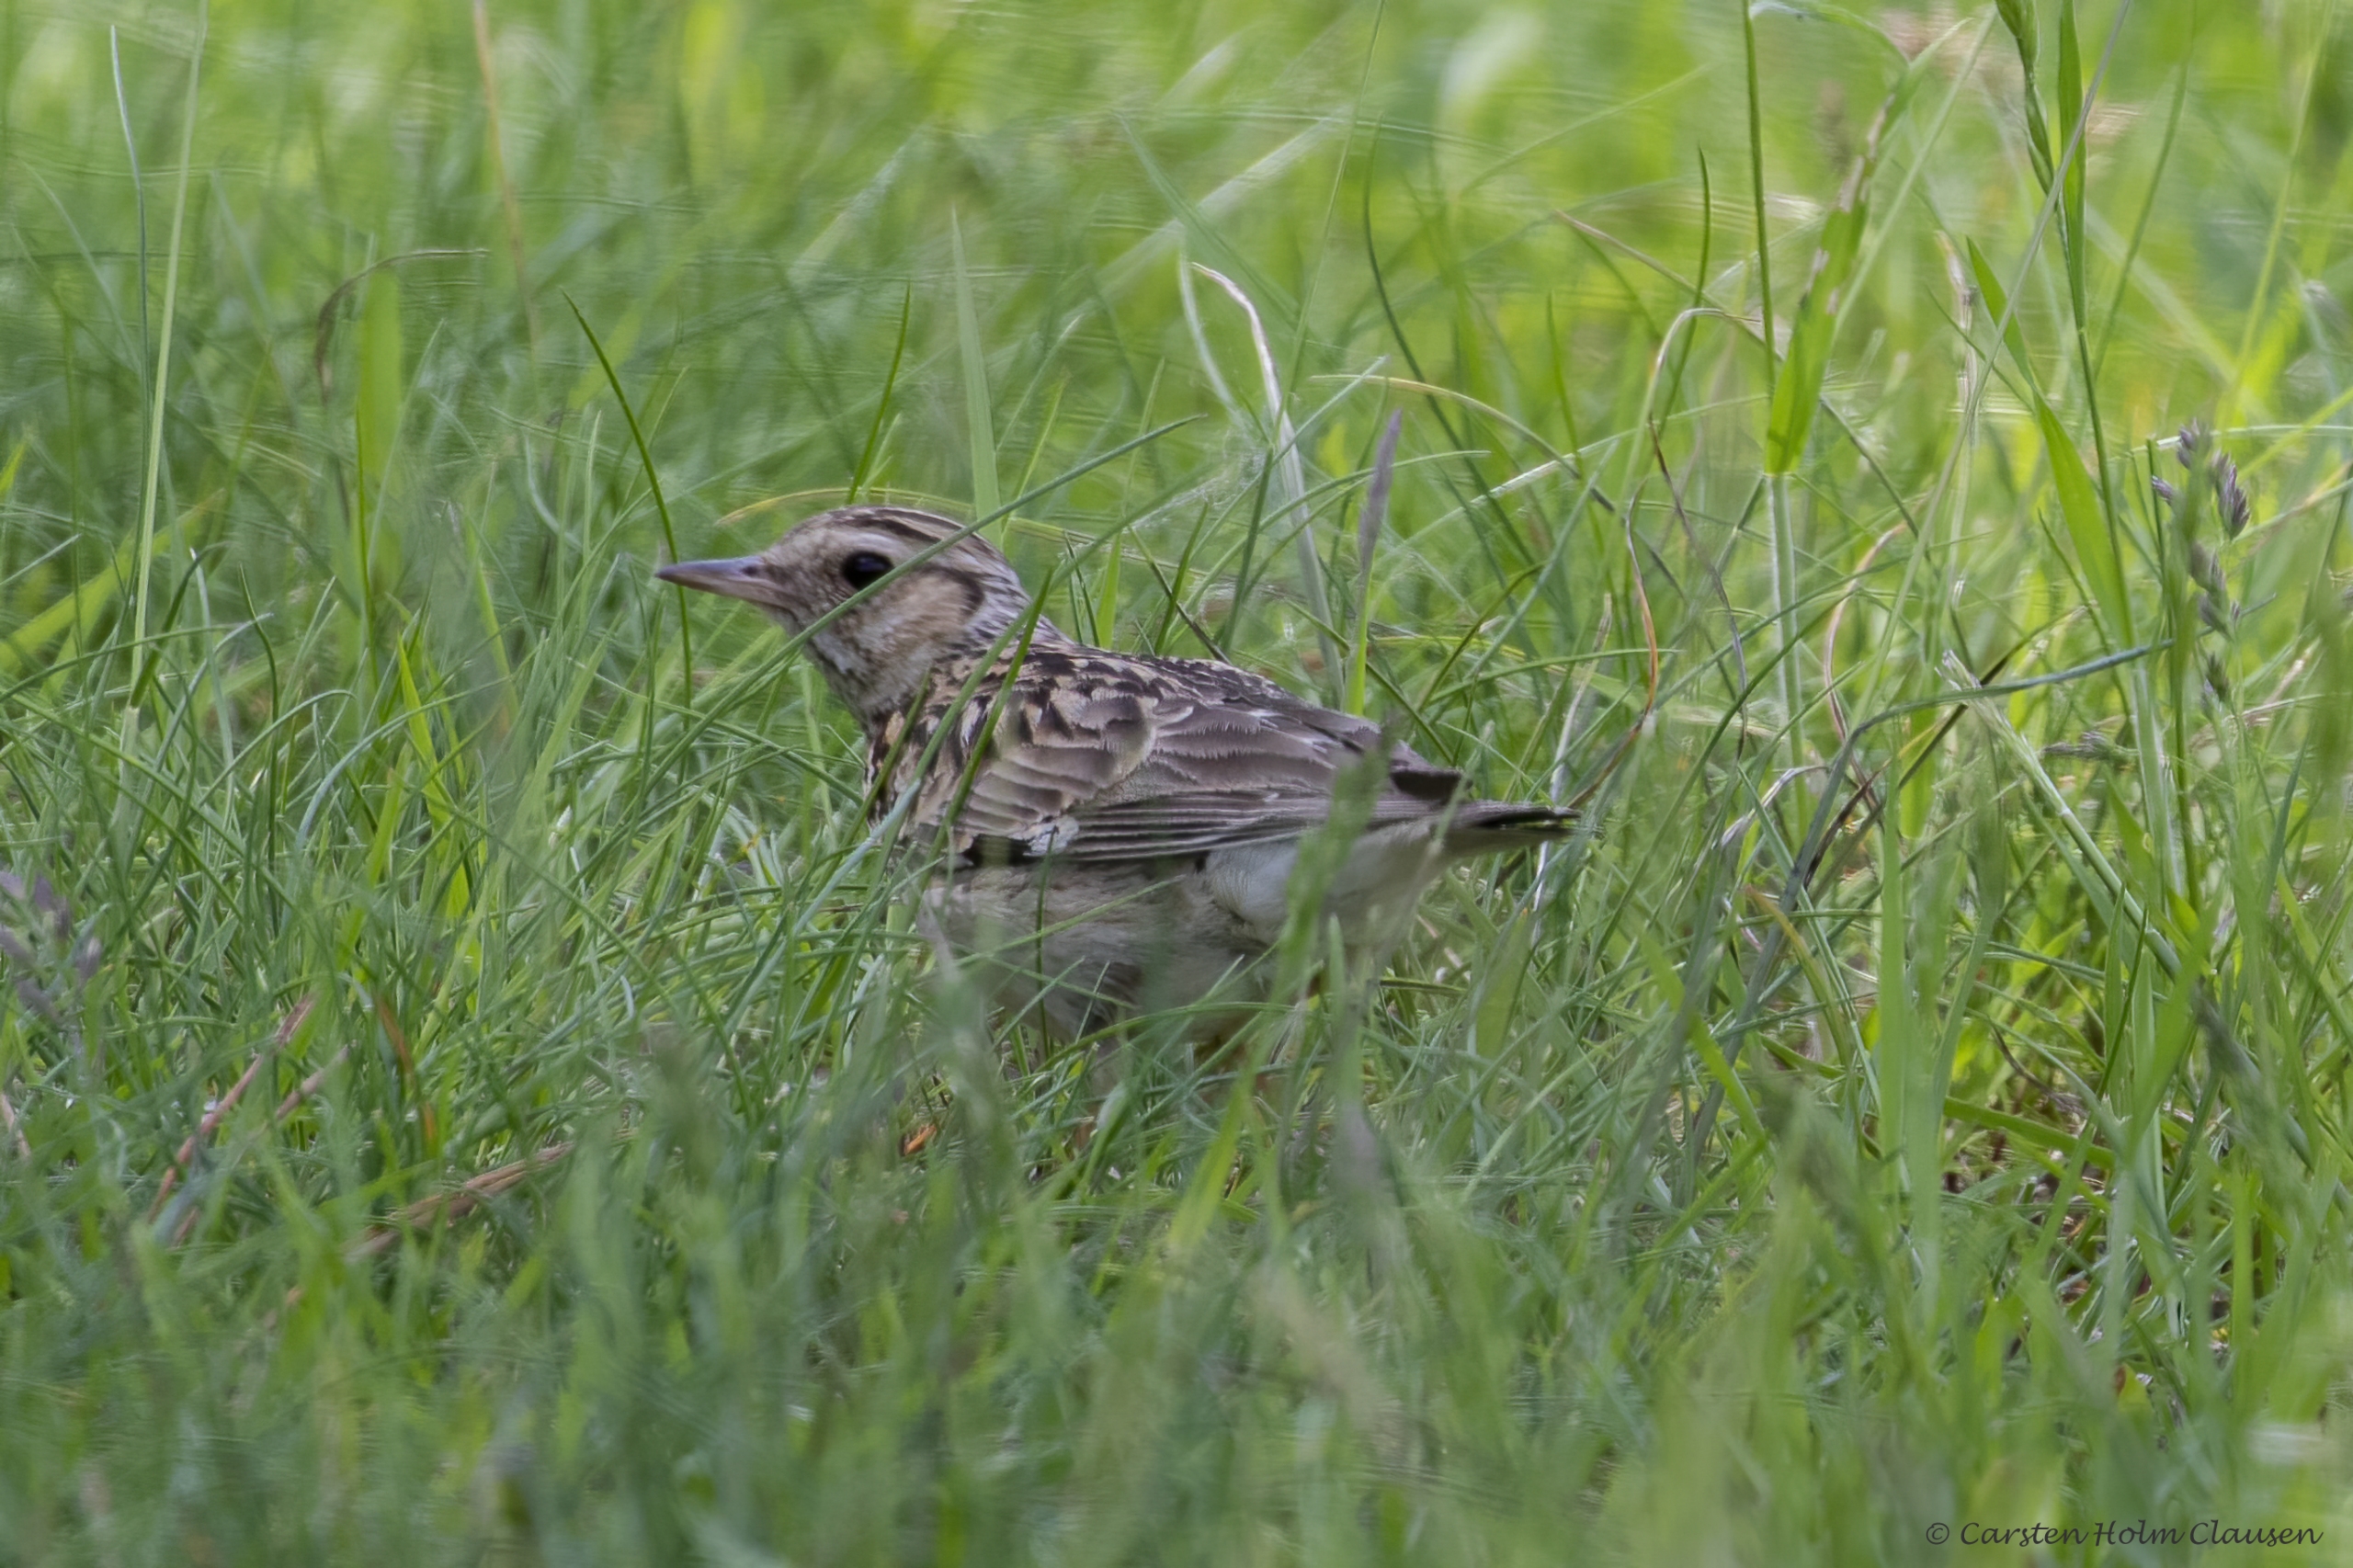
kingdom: Animalia
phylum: Chordata
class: Aves
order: Passeriformes
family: Alaudidae
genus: Lullula
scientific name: Lullula arborea
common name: Hedelærke
